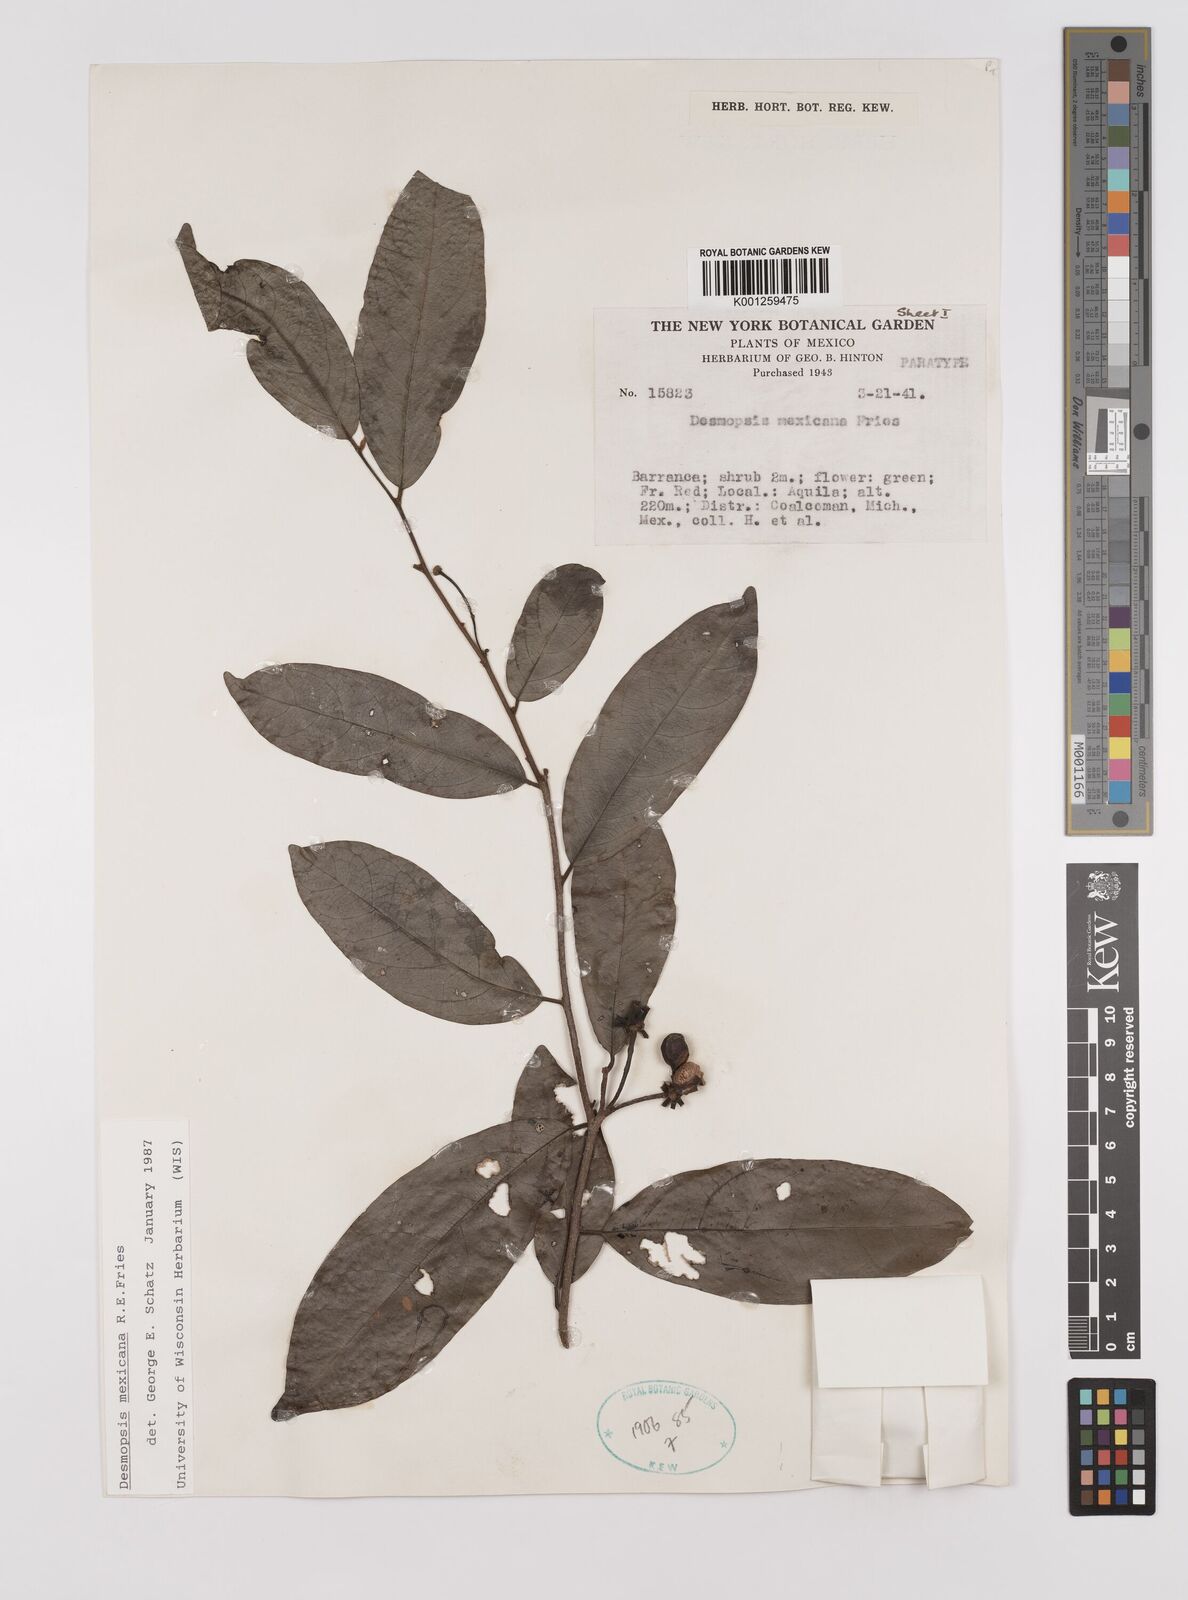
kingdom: Plantae
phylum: Tracheophyta
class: Magnoliopsida
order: Magnoliales
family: Annonaceae
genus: Desmopsis
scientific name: Desmopsis mexicana
